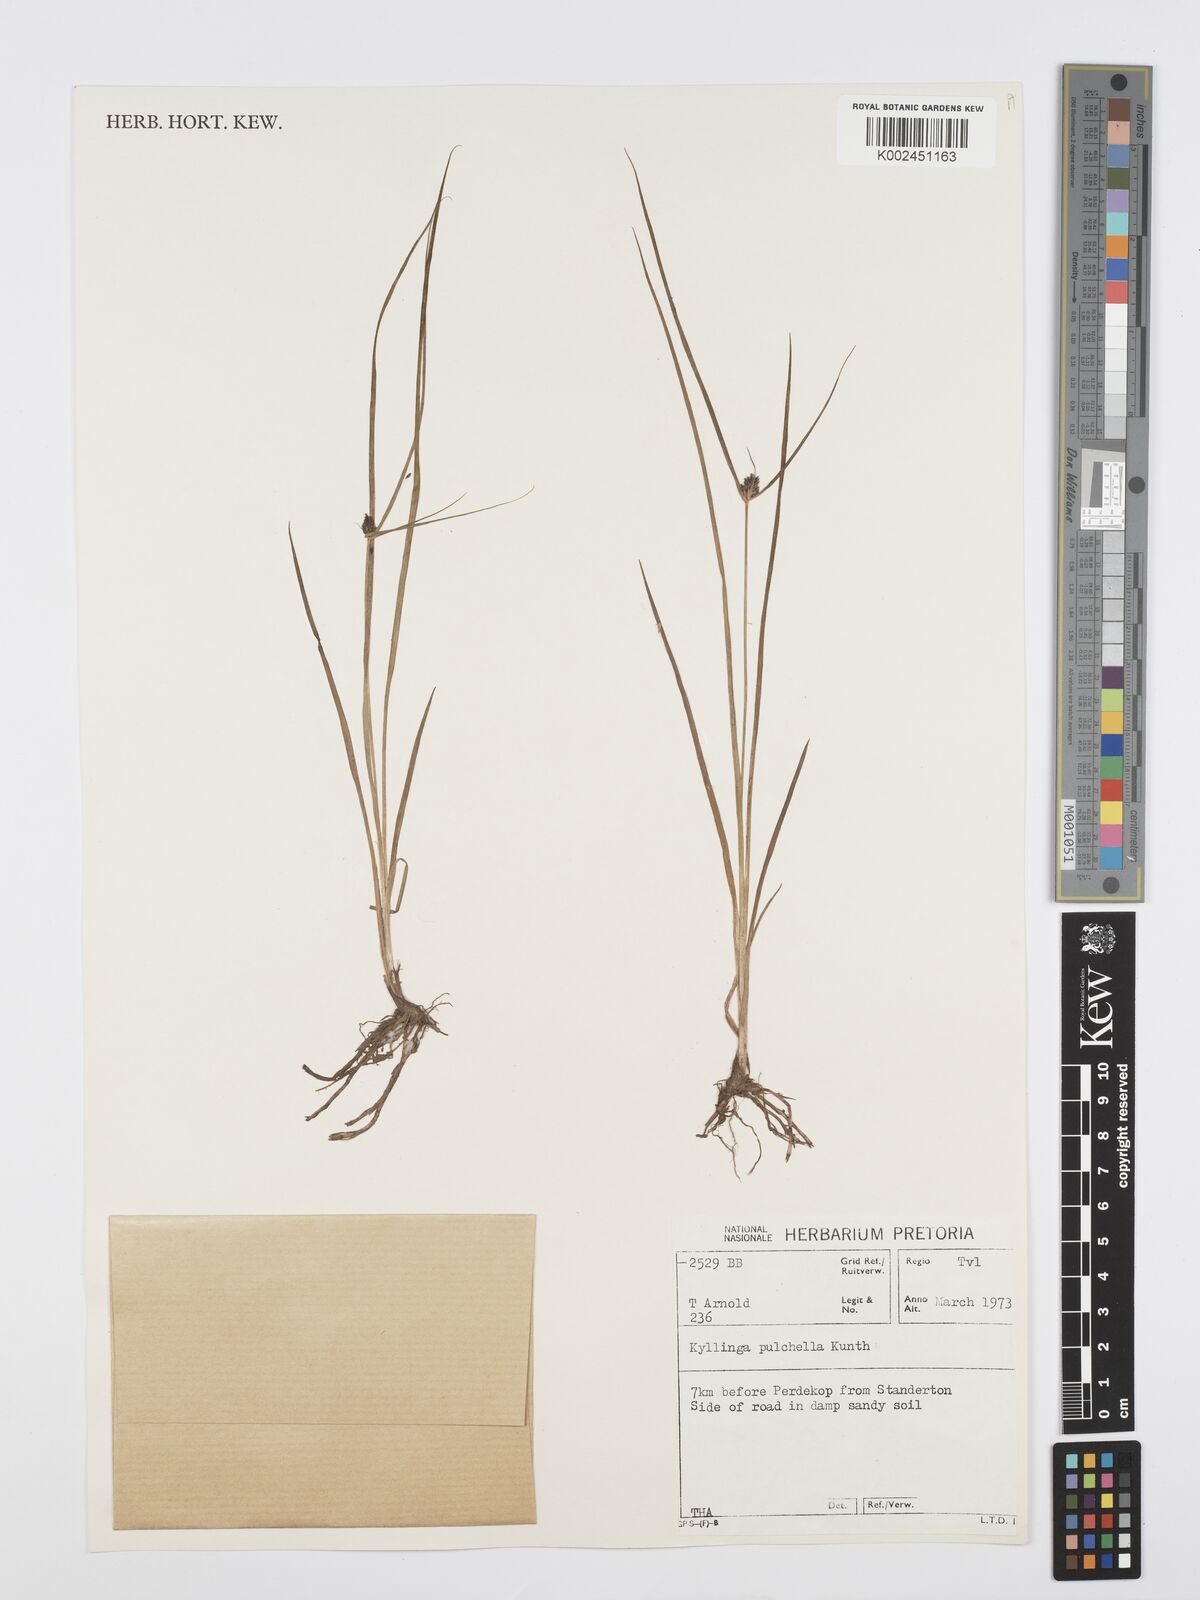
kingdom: Plantae
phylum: Tracheophyta
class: Liliopsida
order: Poales
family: Cyperaceae
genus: Cyperus
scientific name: Cyperus
